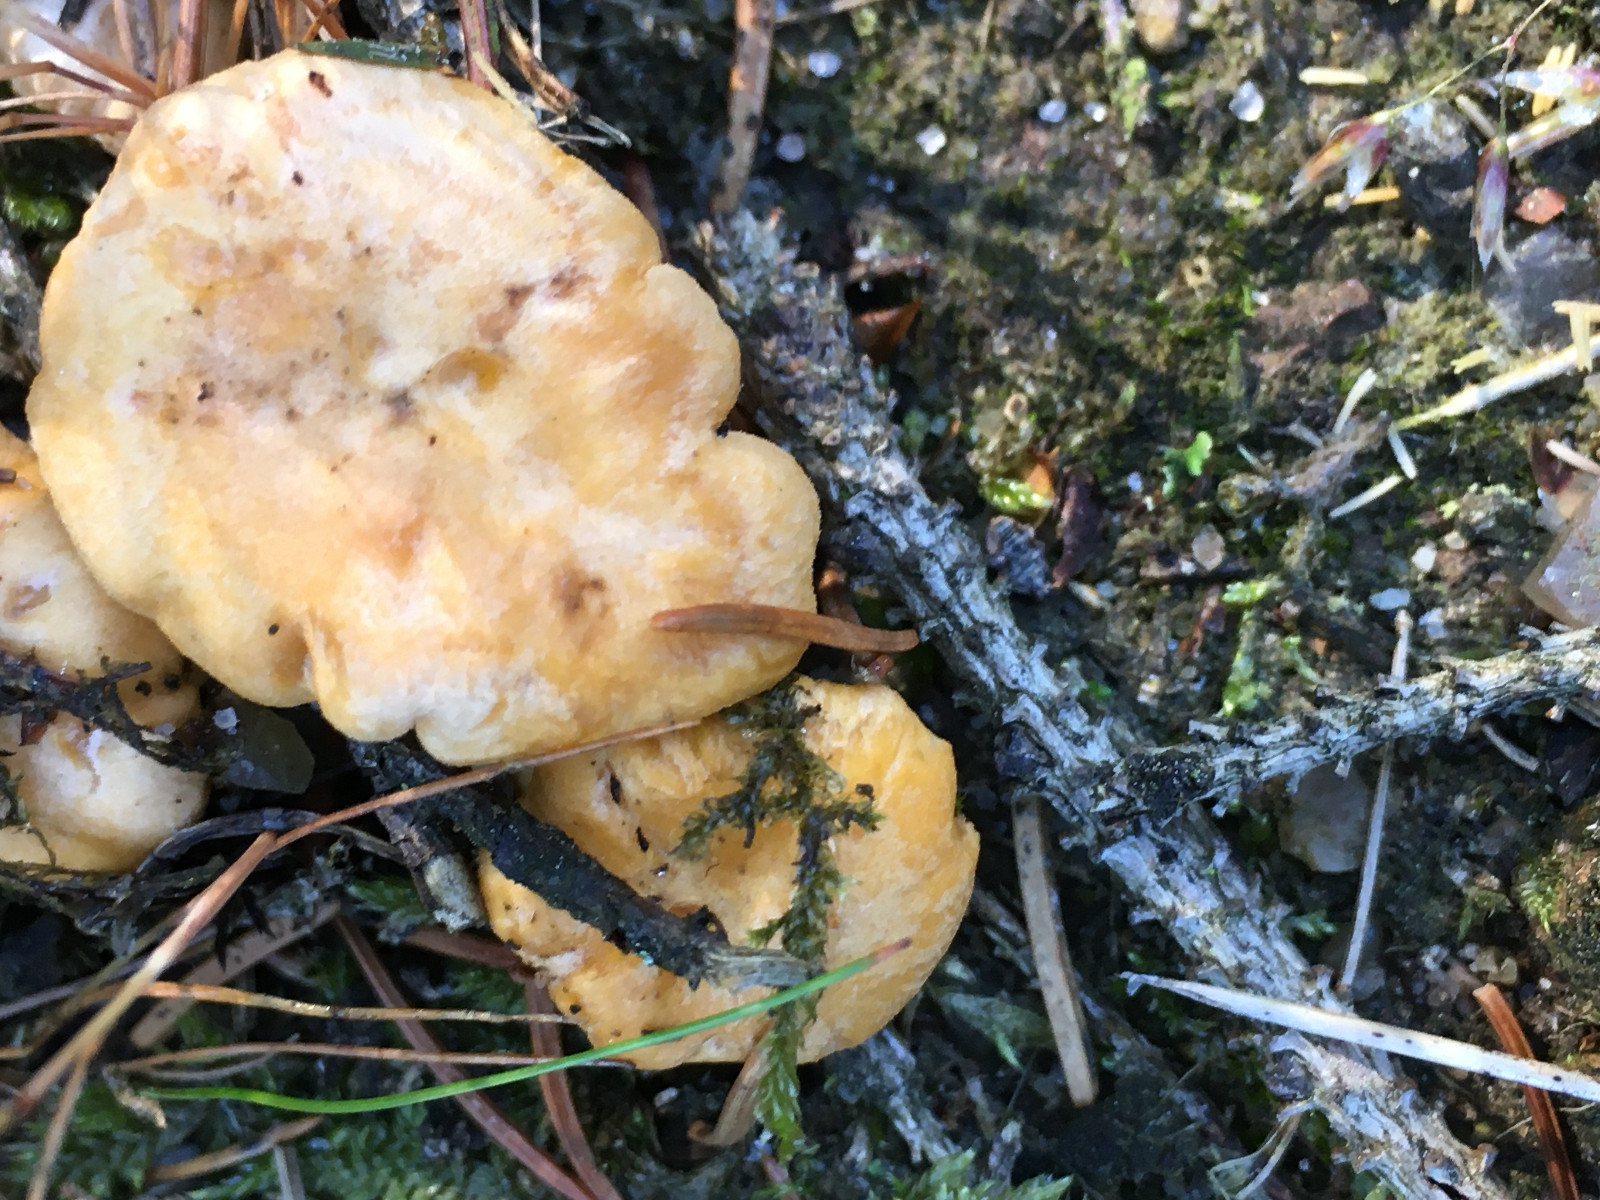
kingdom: Fungi
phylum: Basidiomycota
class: Agaricomycetes
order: Cantharellales
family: Hydnaceae
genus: Cantharellus
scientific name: Cantharellus cibarius
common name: almindelig kantarel
